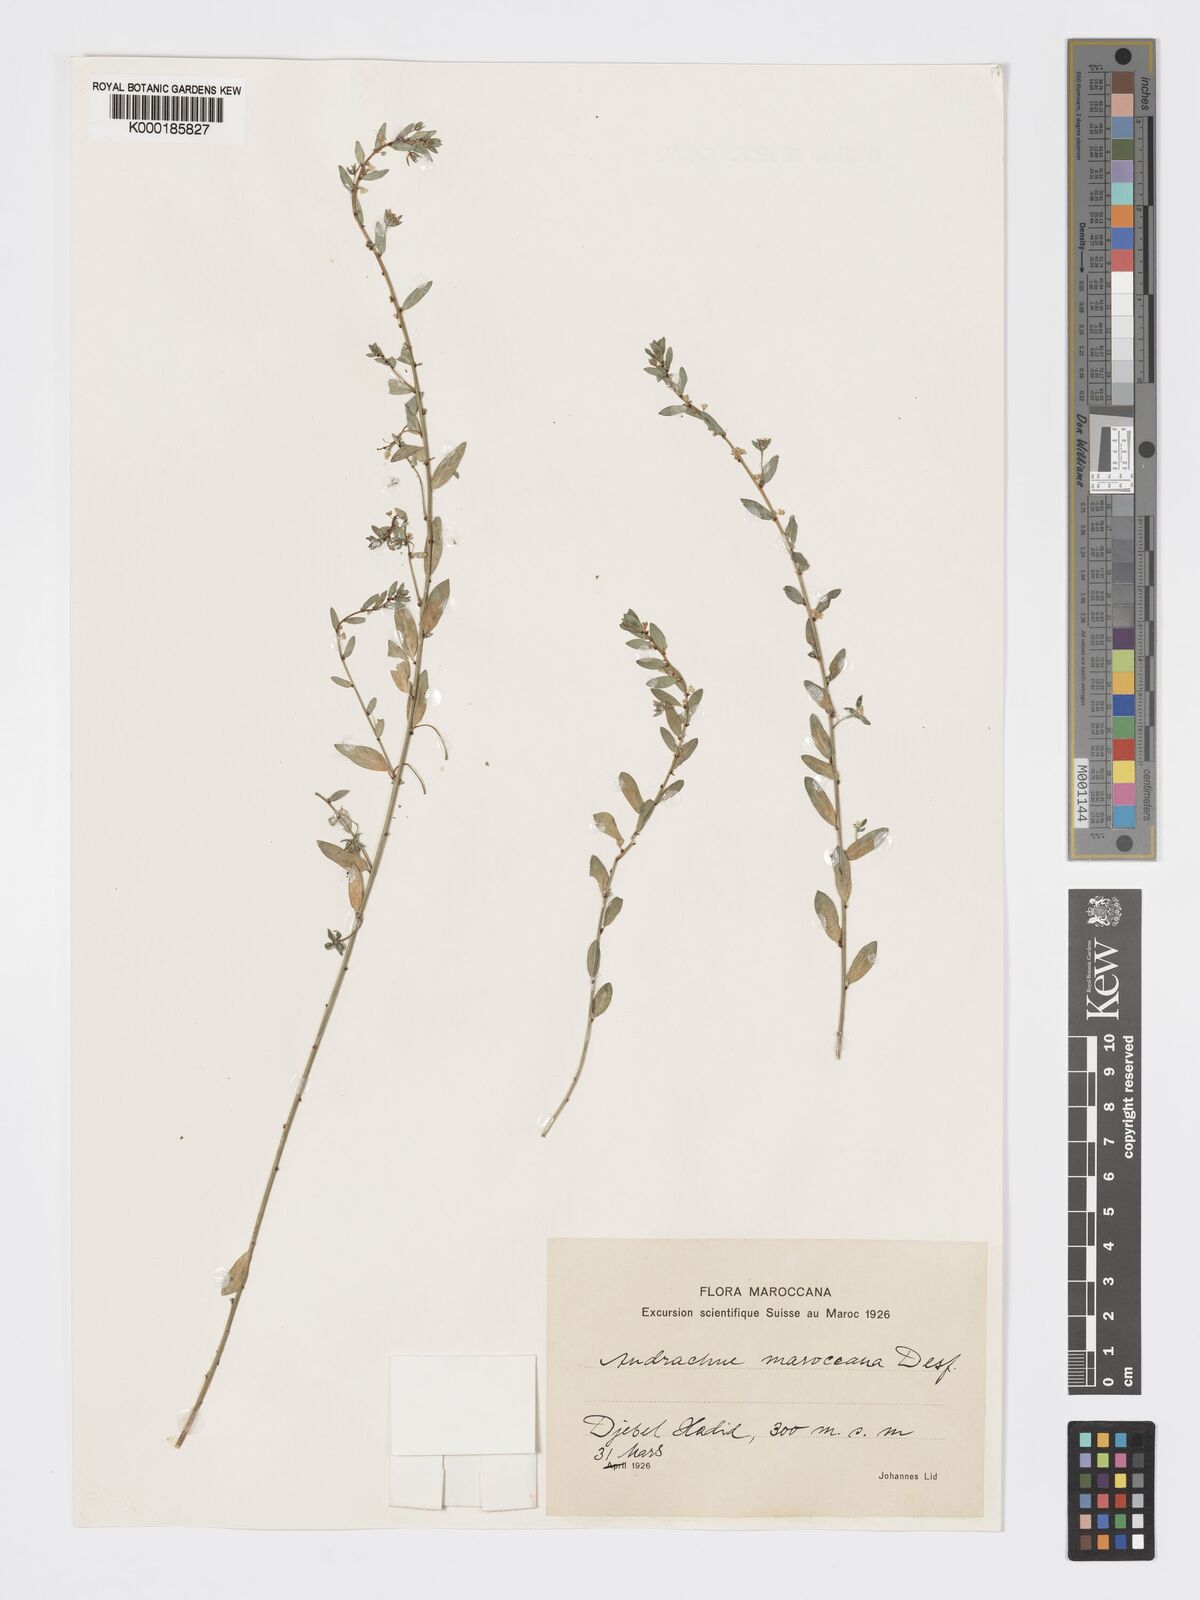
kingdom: Plantae
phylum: Tracheophyta
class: Magnoliopsida
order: Malpighiales
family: Phyllanthaceae
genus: Andrachne
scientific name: Andrachne maroccana
